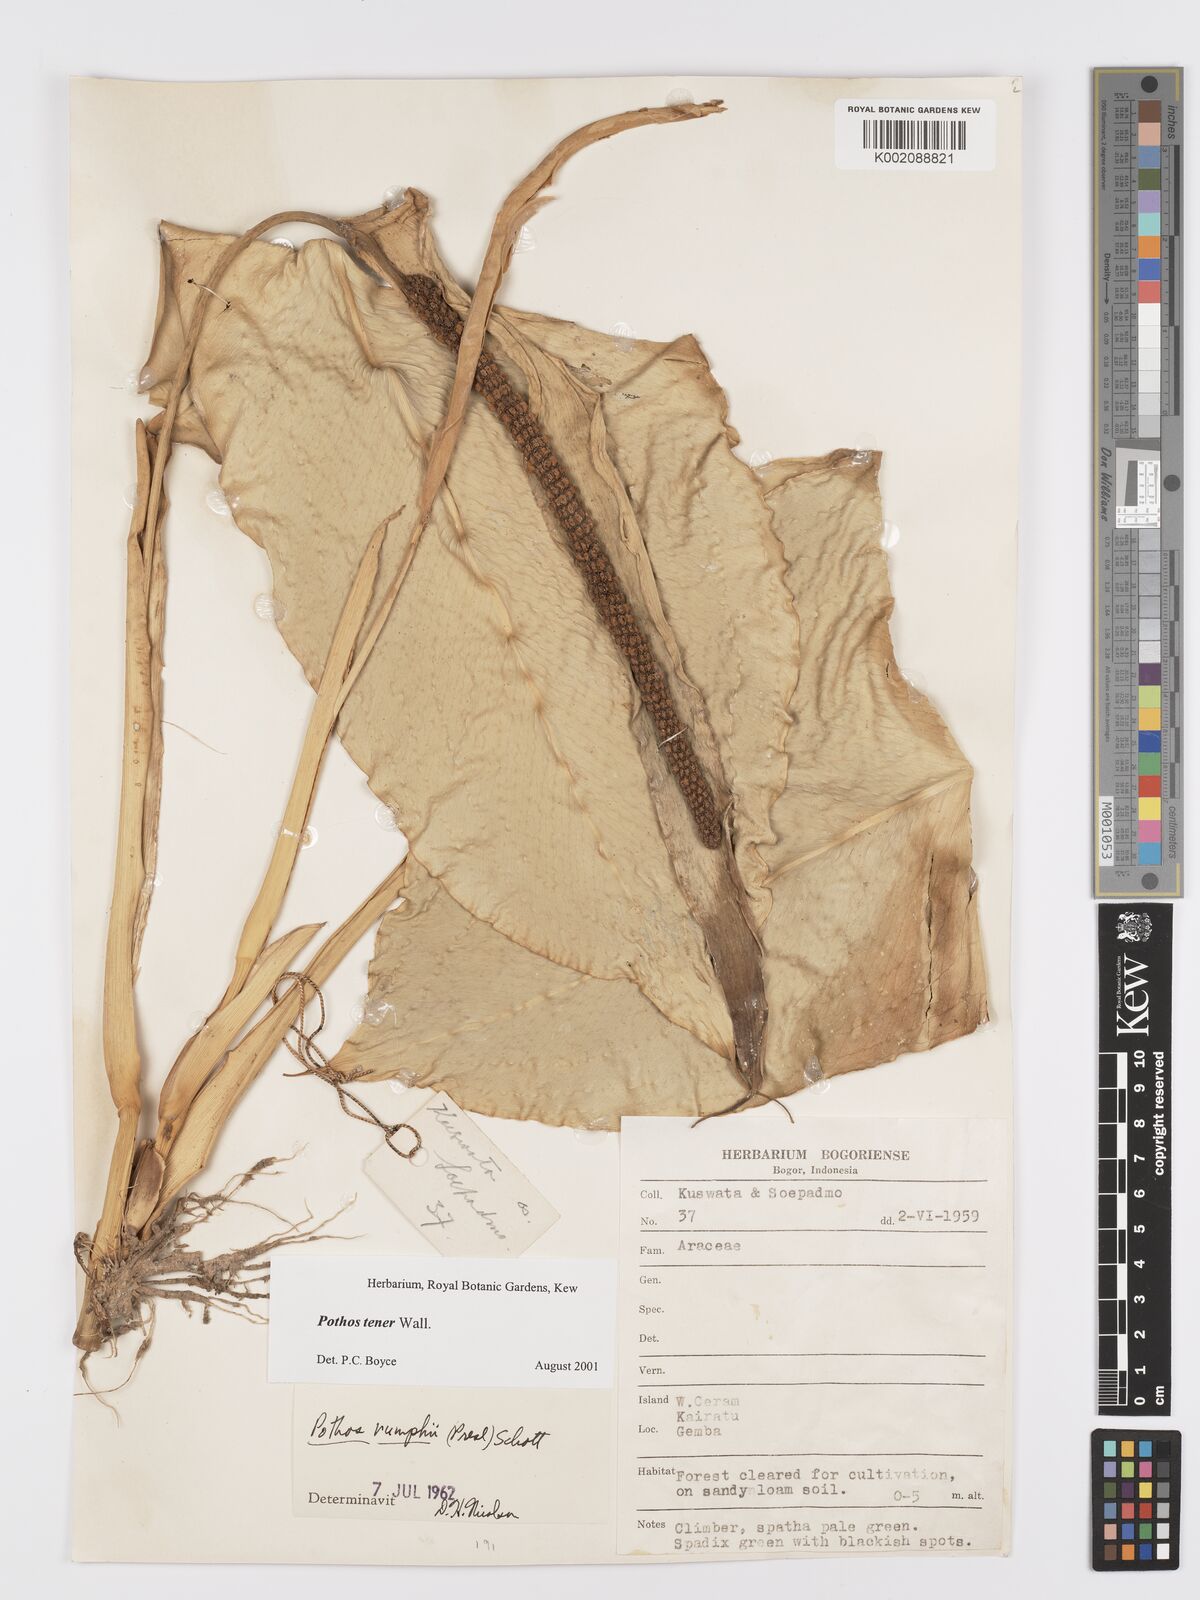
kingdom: Plantae
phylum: Tracheophyta
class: Liliopsida
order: Alismatales
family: Araceae
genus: Pothos
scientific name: Pothos tener
